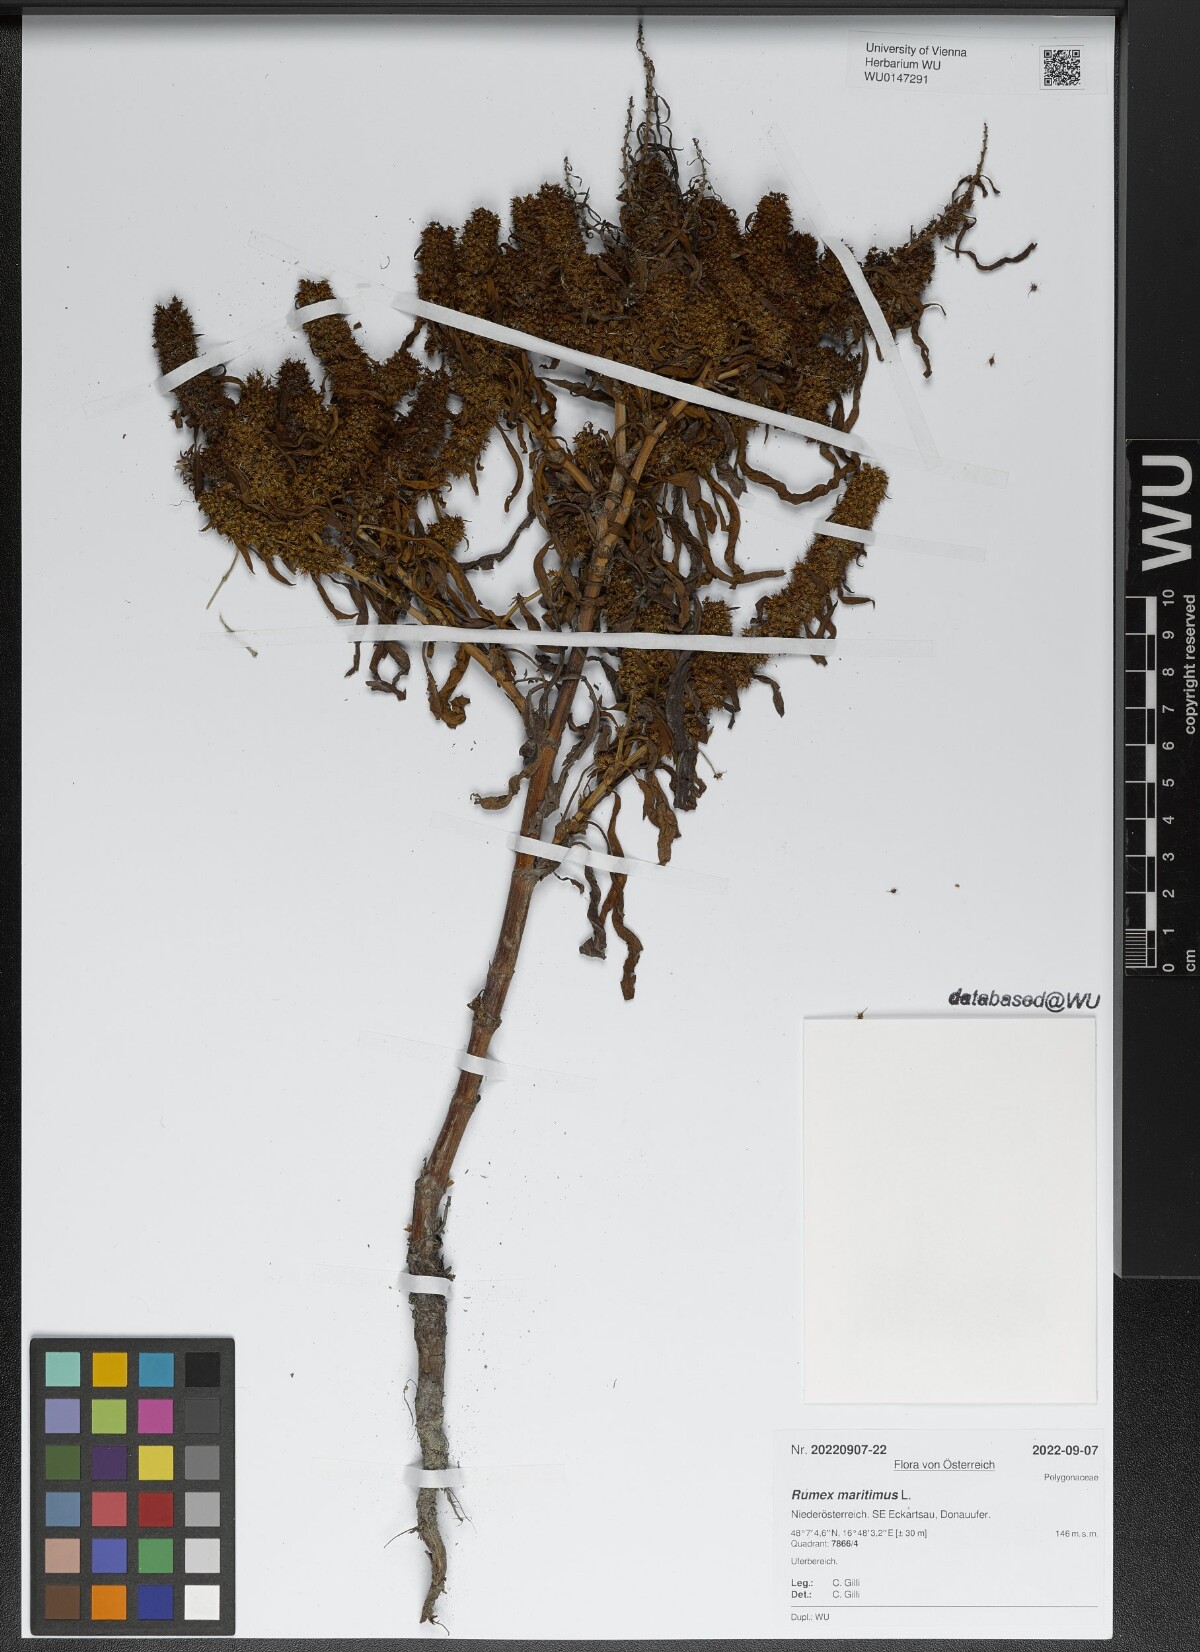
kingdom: Plantae
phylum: Tracheophyta
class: Magnoliopsida
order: Caryophyllales
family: Polygonaceae
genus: Rumex
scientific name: Rumex maritimus
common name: Golden dock
